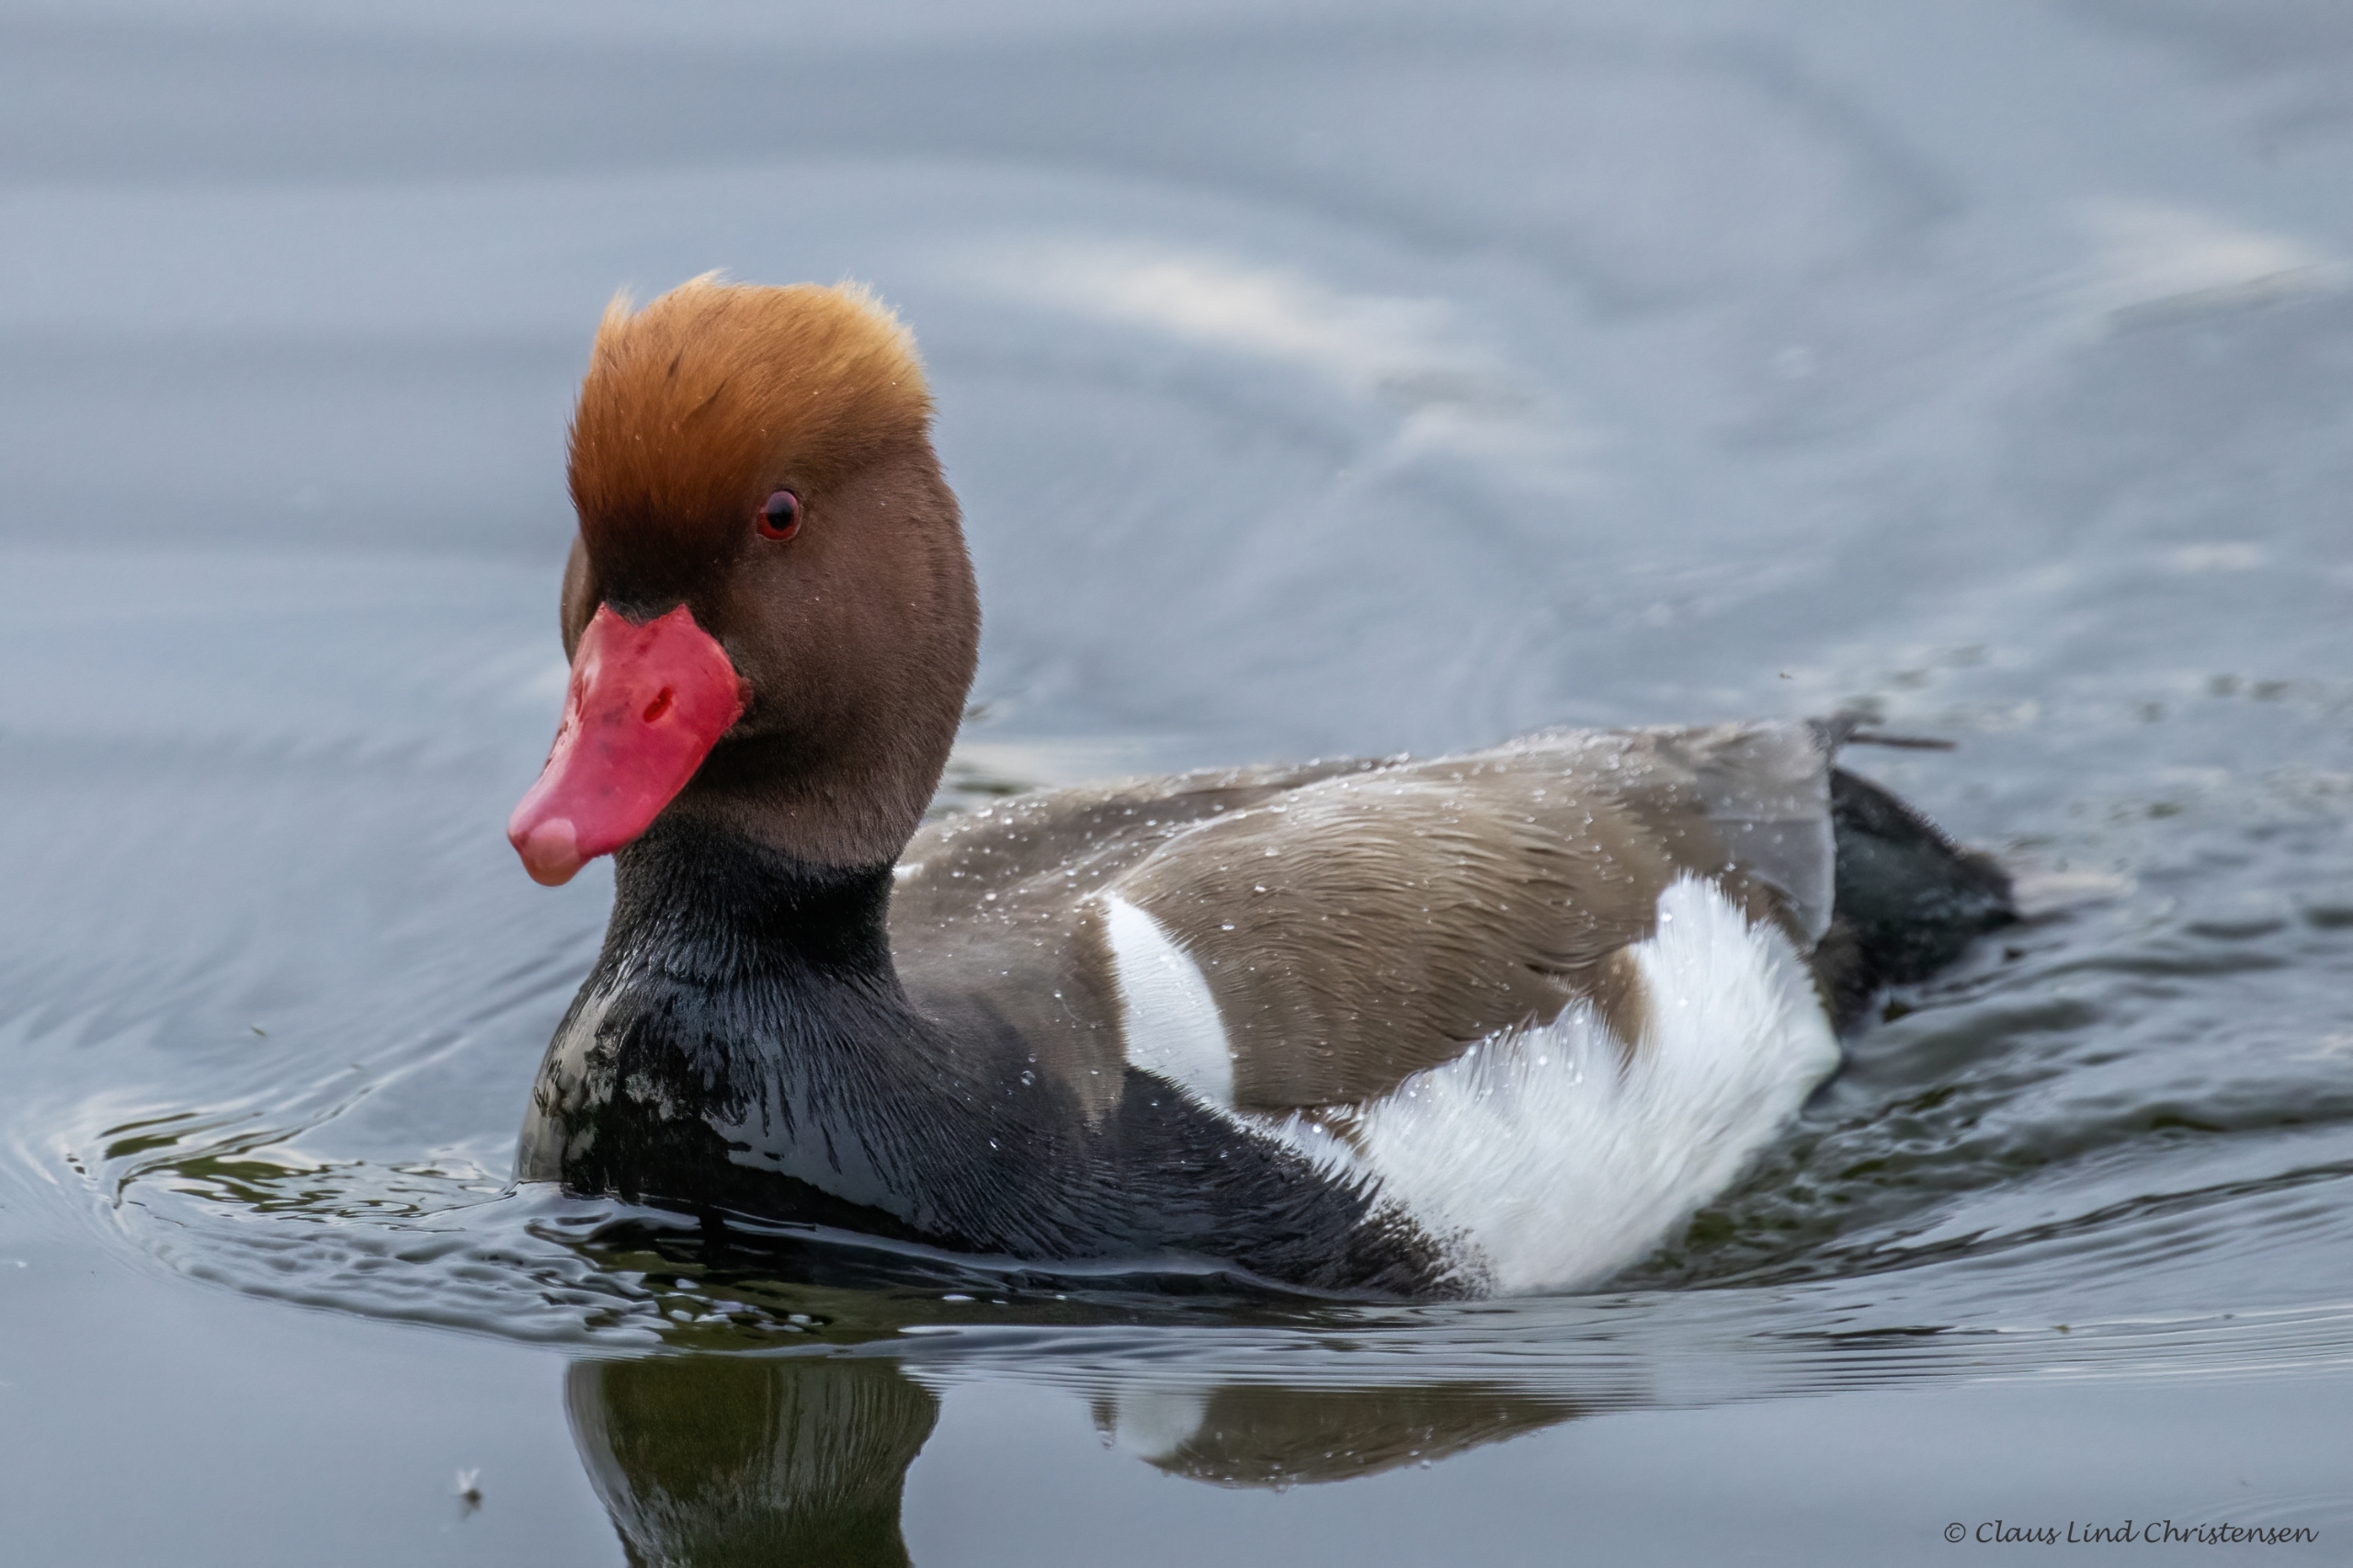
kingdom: Animalia
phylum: Chordata
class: Aves
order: Anseriformes
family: Anatidae
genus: Netta
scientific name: Netta rufina
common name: Rødhovedet and
